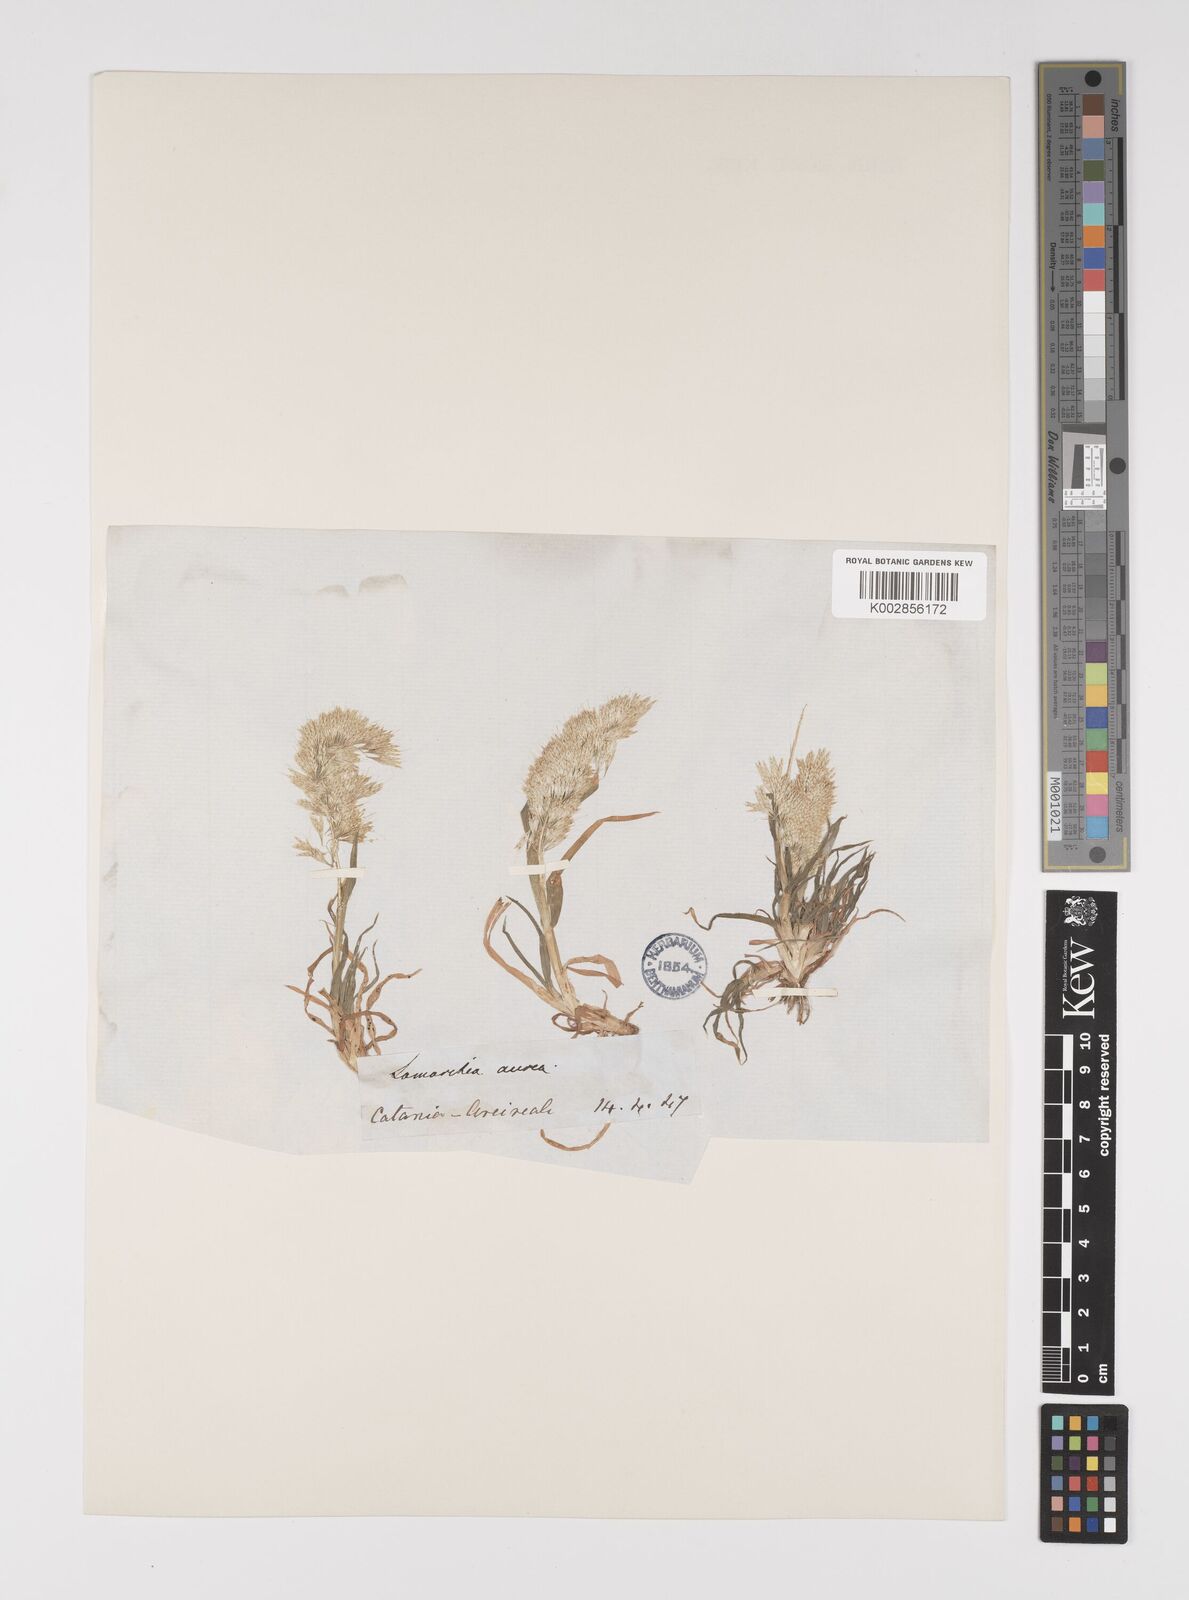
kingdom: Plantae
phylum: Tracheophyta
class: Liliopsida
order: Poales
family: Poaceae
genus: Lamarckia
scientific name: Lamarckia aurea
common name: Golden dog's-tail
